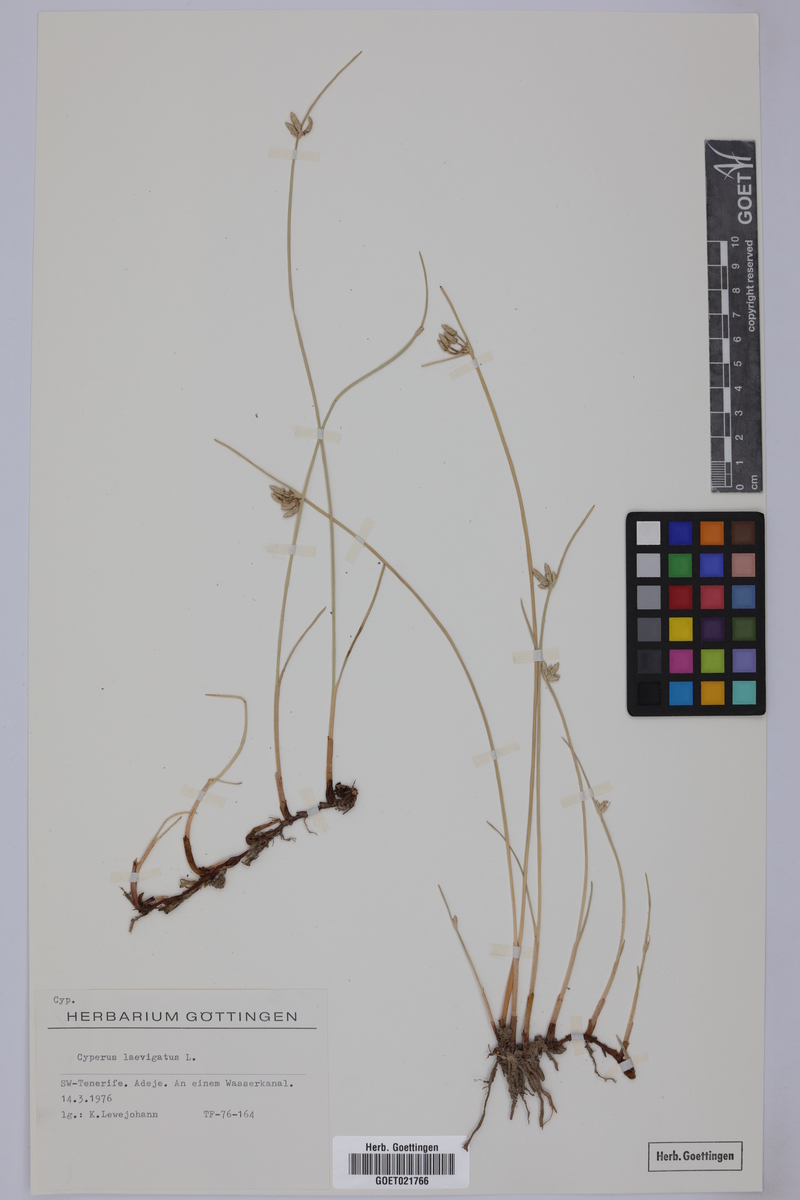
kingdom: Plantae
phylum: Tracheophyta
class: Liliopsida
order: Poales
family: Cyperaceae
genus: Cyperus
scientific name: Cyperus laevigatus
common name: Smooth flat sedge
